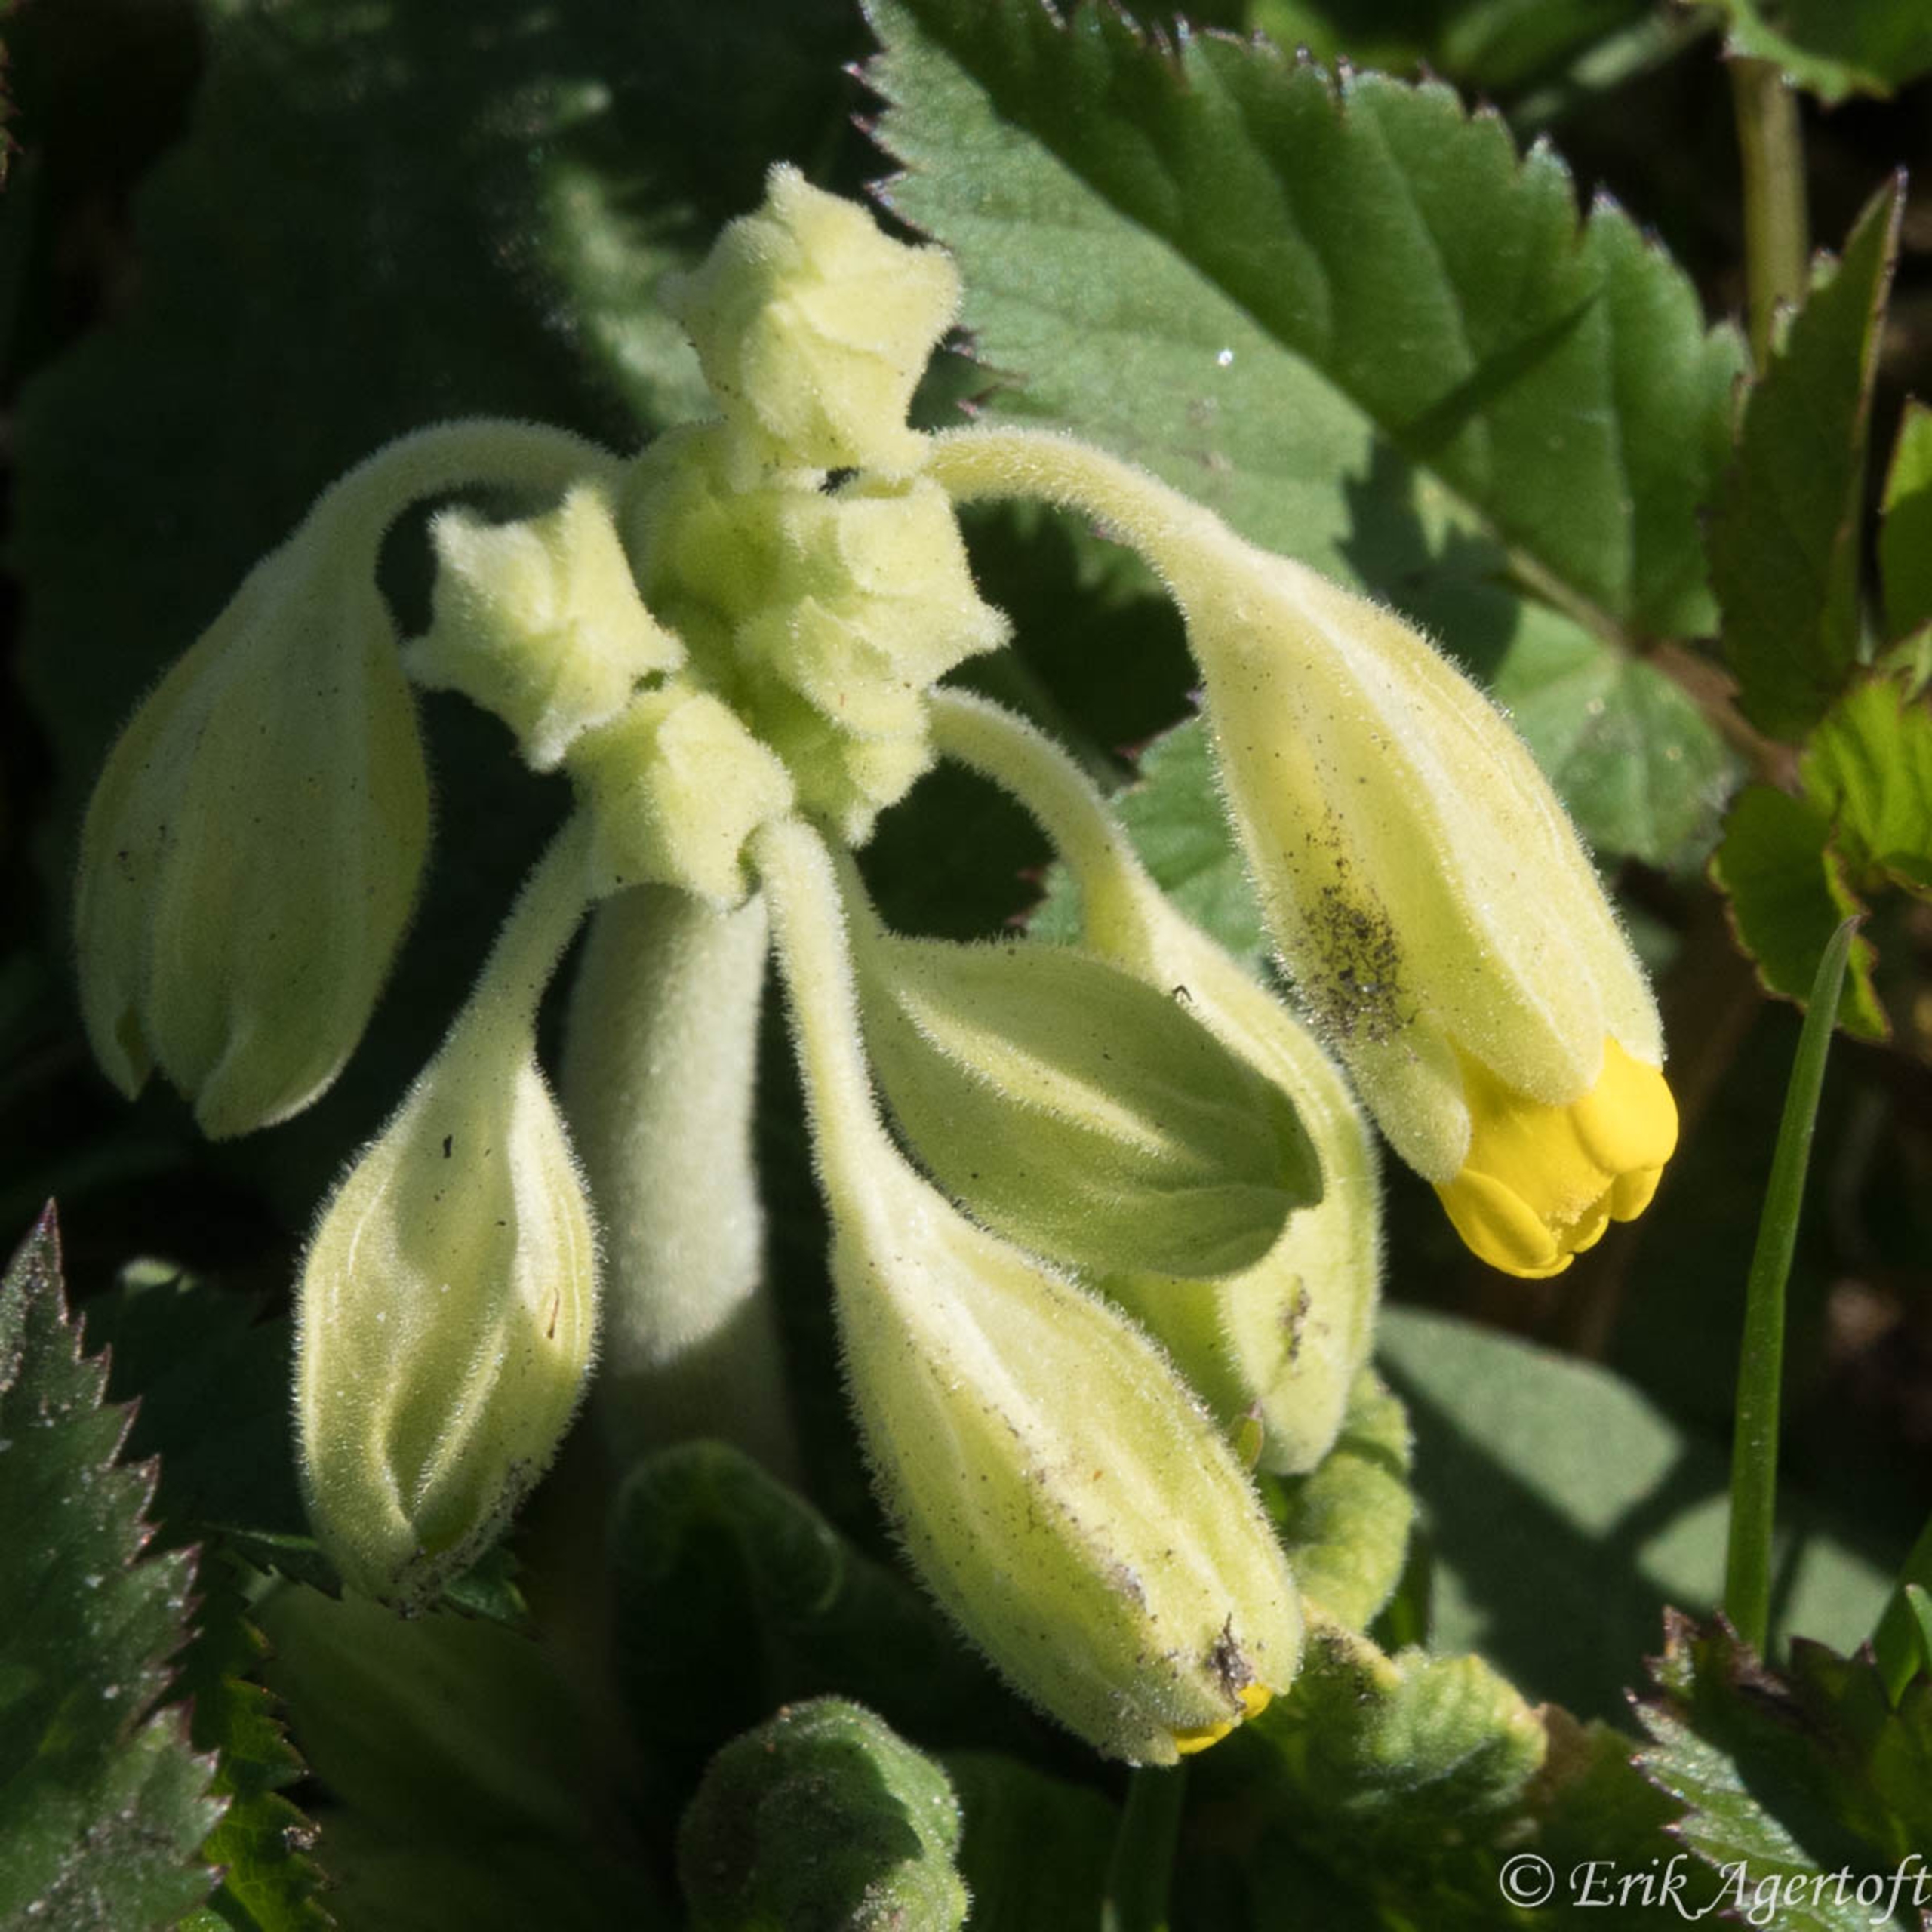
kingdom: Plantae
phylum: Tracheophyta
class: Magnoliopsida
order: Ericales
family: Primulaceae
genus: Primula
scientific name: Primula veris
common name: Hulkravet kodriver
